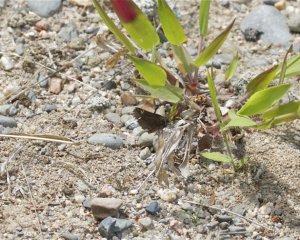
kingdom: Animalia
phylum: Arthropoda
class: Insecta
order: Lepidoptera
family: Hesperiidae
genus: Mastor
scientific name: Mastor vialis
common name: Common Roadside-Skipper
